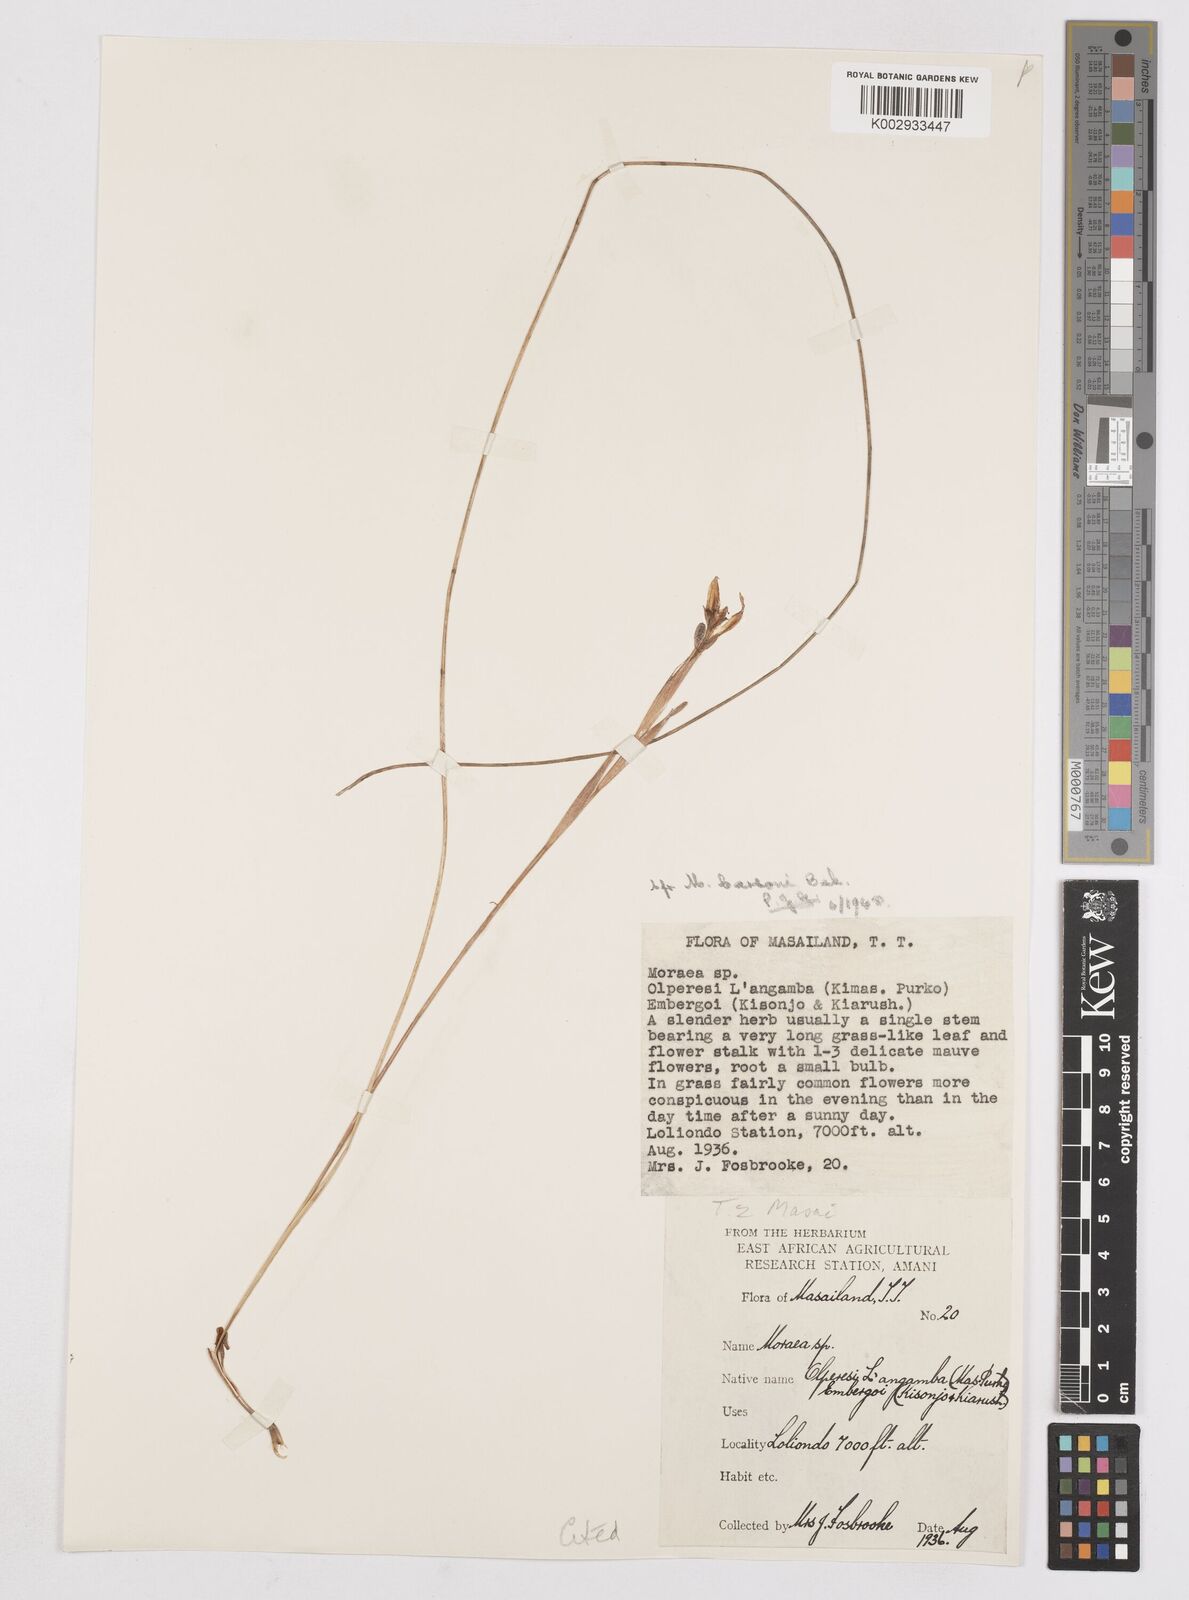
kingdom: Plantae
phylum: Tracheophyta
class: Liliopsida
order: Asparagales
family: Iridaceae
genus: Moraea
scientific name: Moraea stricta
